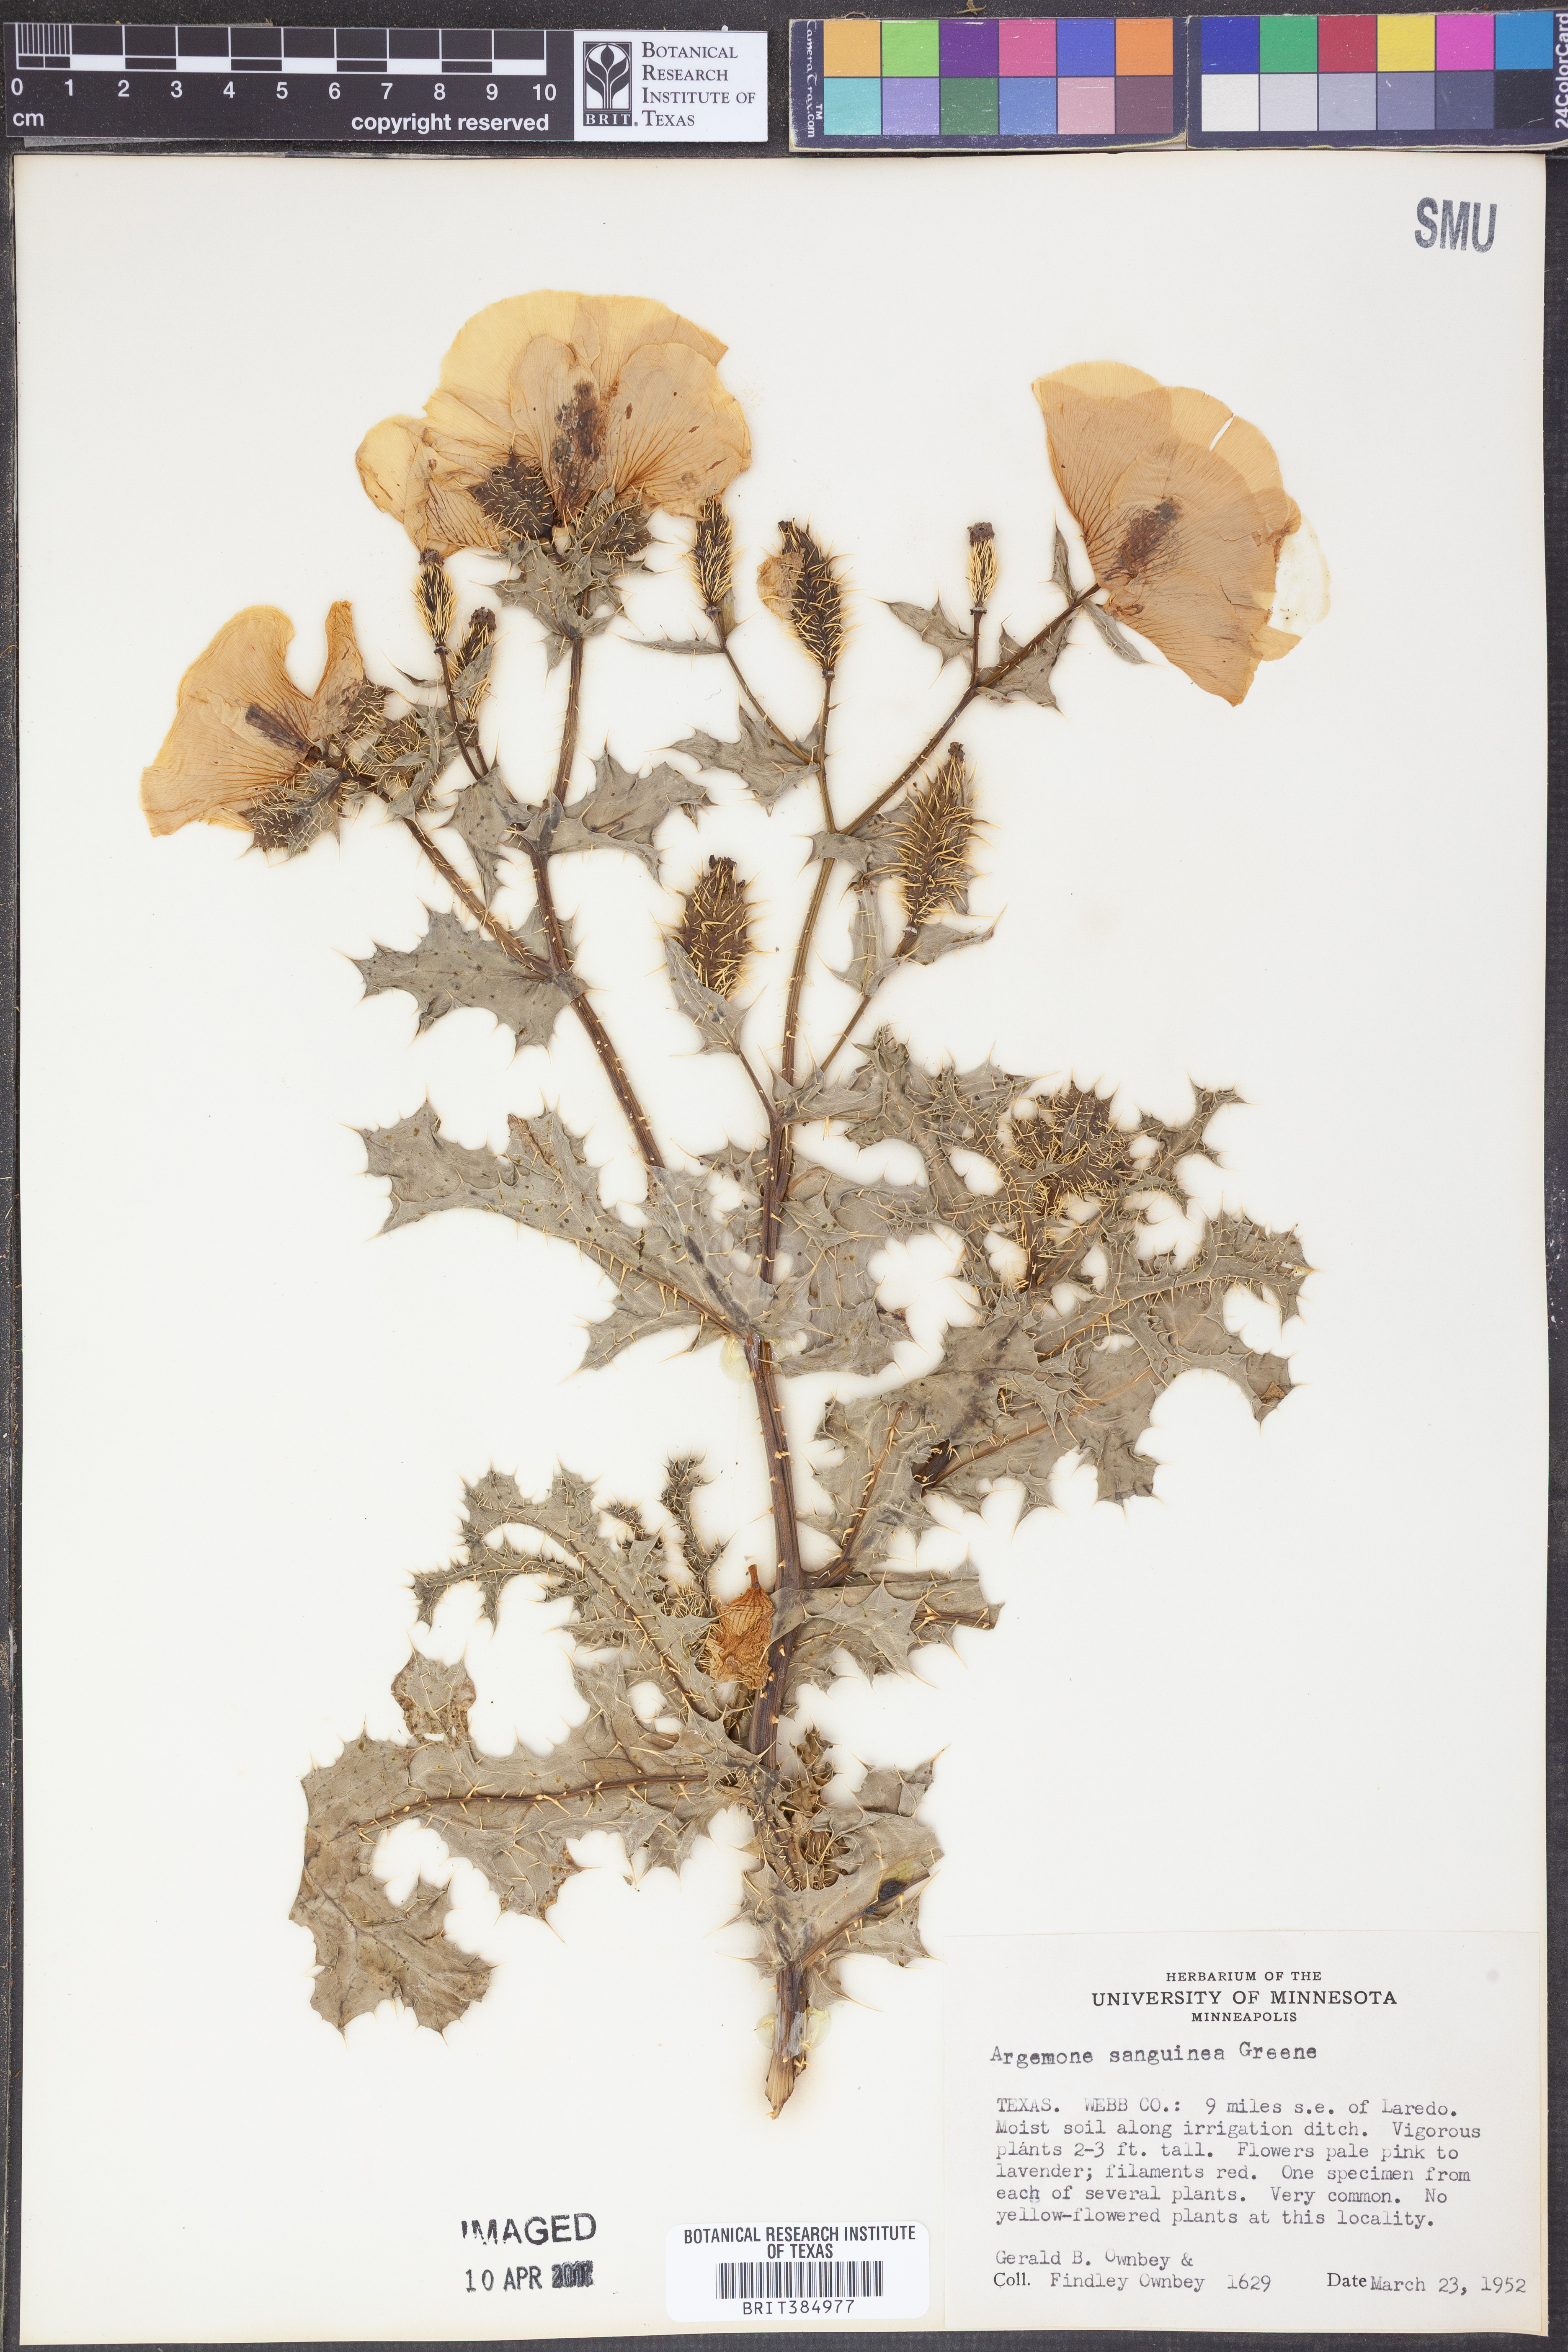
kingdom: Plantae
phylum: Tracheophyta
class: Magnoliopsida
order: Ranunculales
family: Papaveraceae
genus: Argemone
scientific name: Argemone sanguinea
